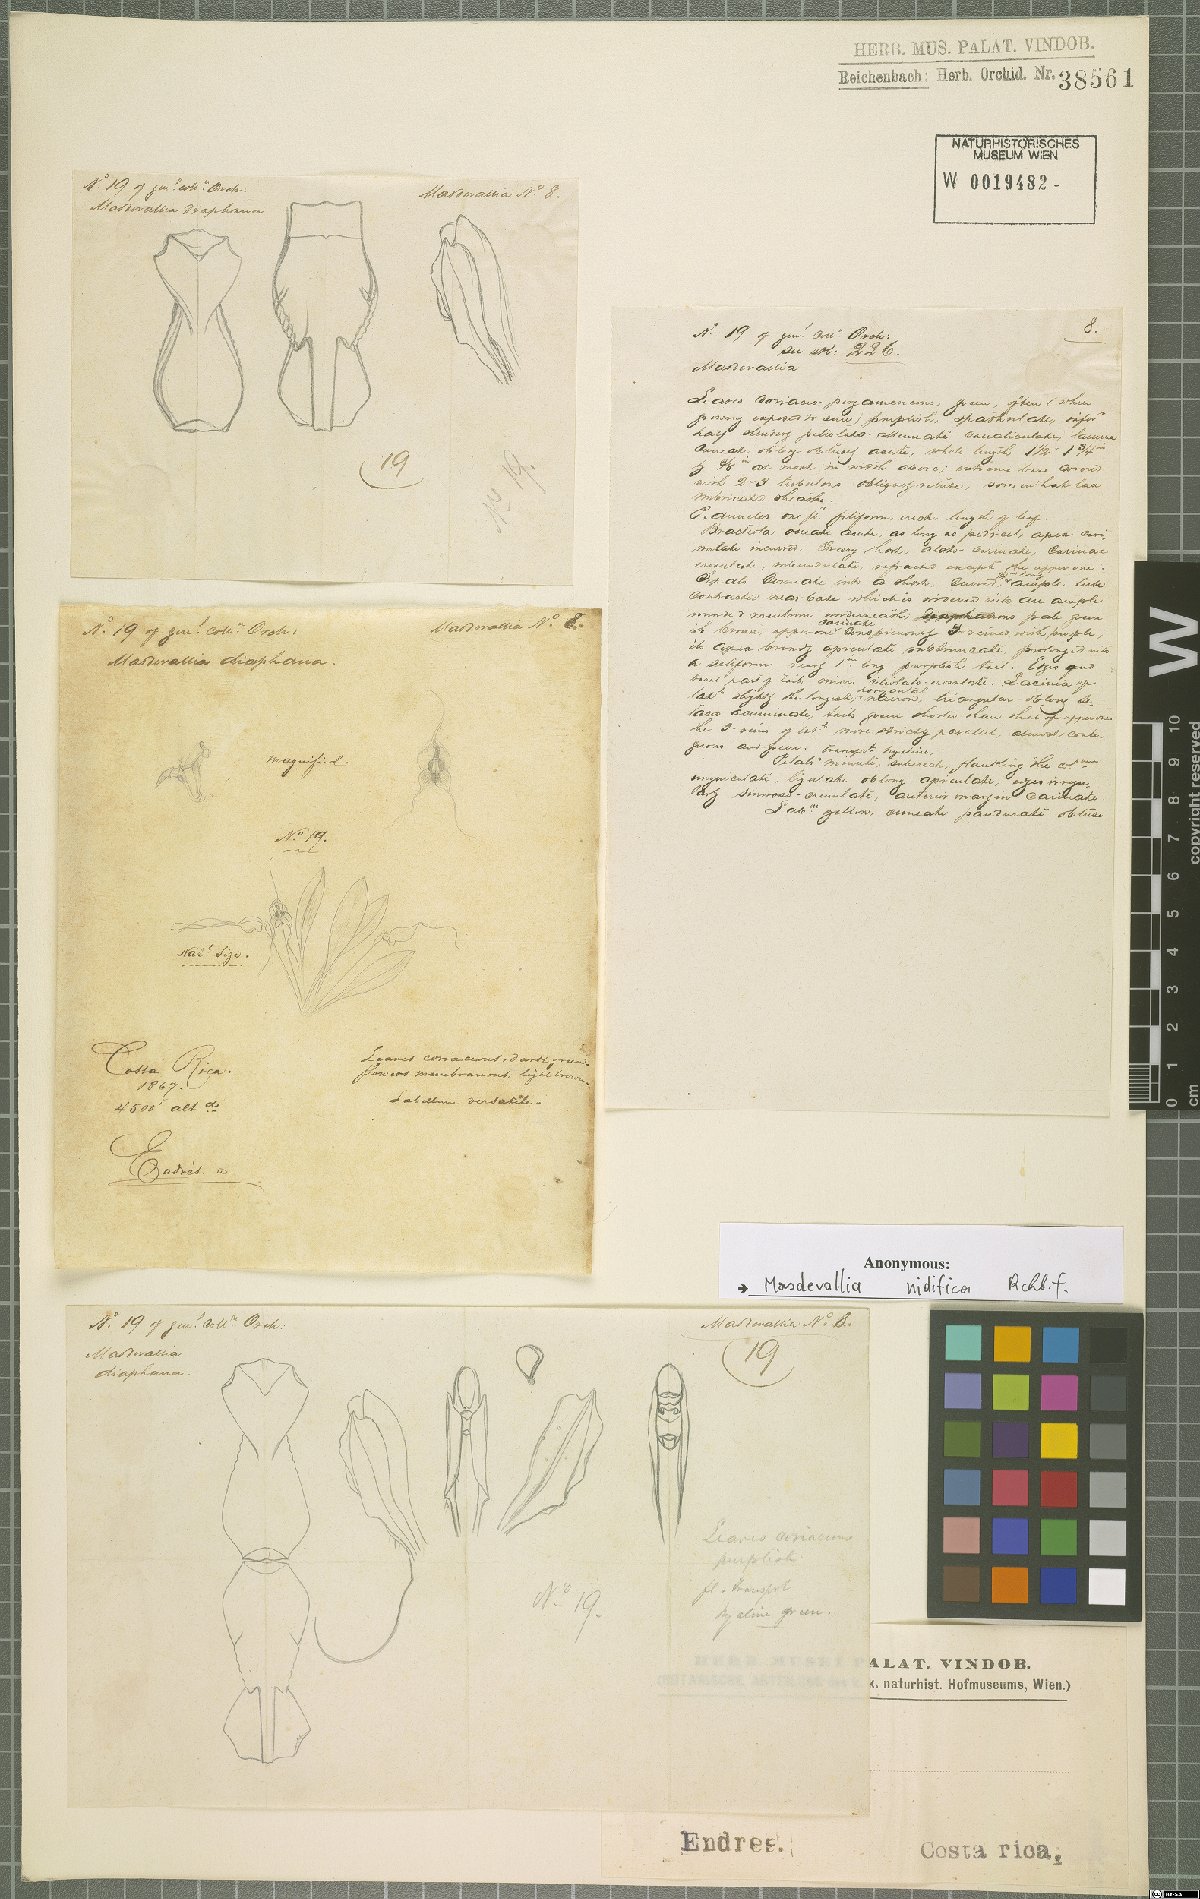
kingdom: Plantae
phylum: Tracheophyta
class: Liliopsida
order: Asparagales
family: Orchidaceae
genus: Masdevallia
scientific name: Masdevallia nidifica
